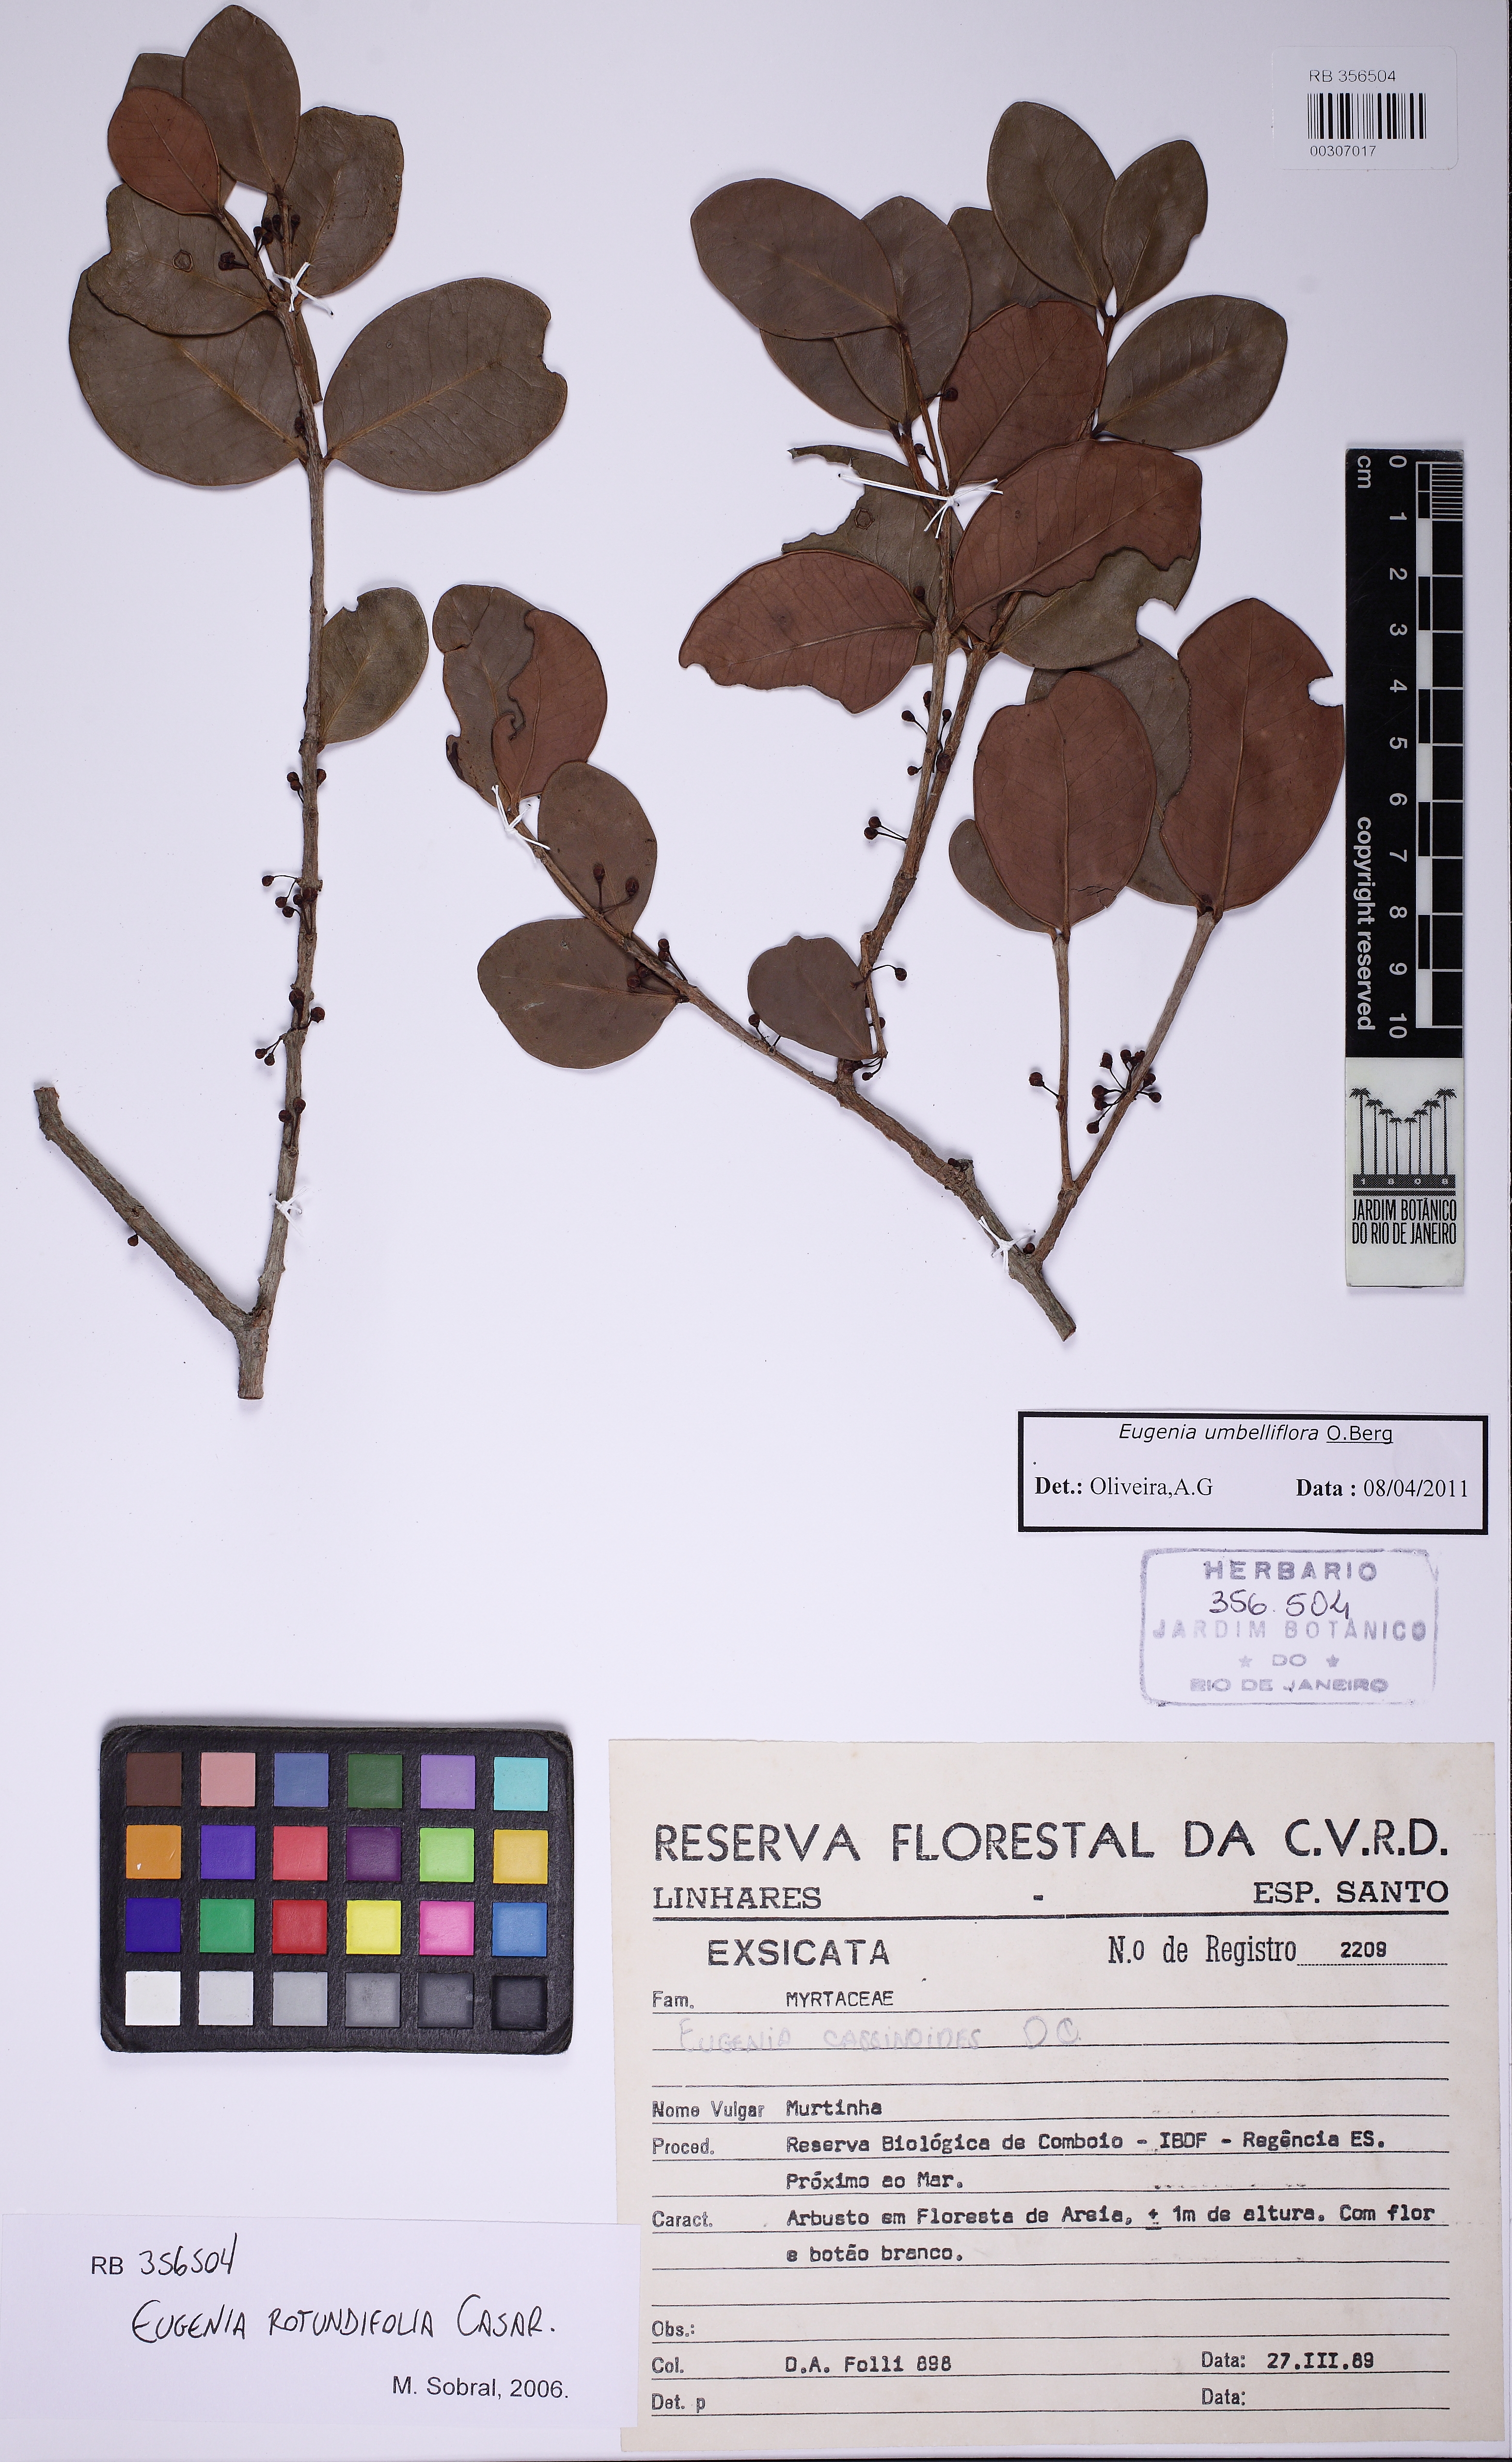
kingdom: Plantae
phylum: Tracheophyta
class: Magnoliopsida
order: Myrtales
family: Myrtaceae
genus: Eugenia
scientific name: Eugenia umbelliflora
